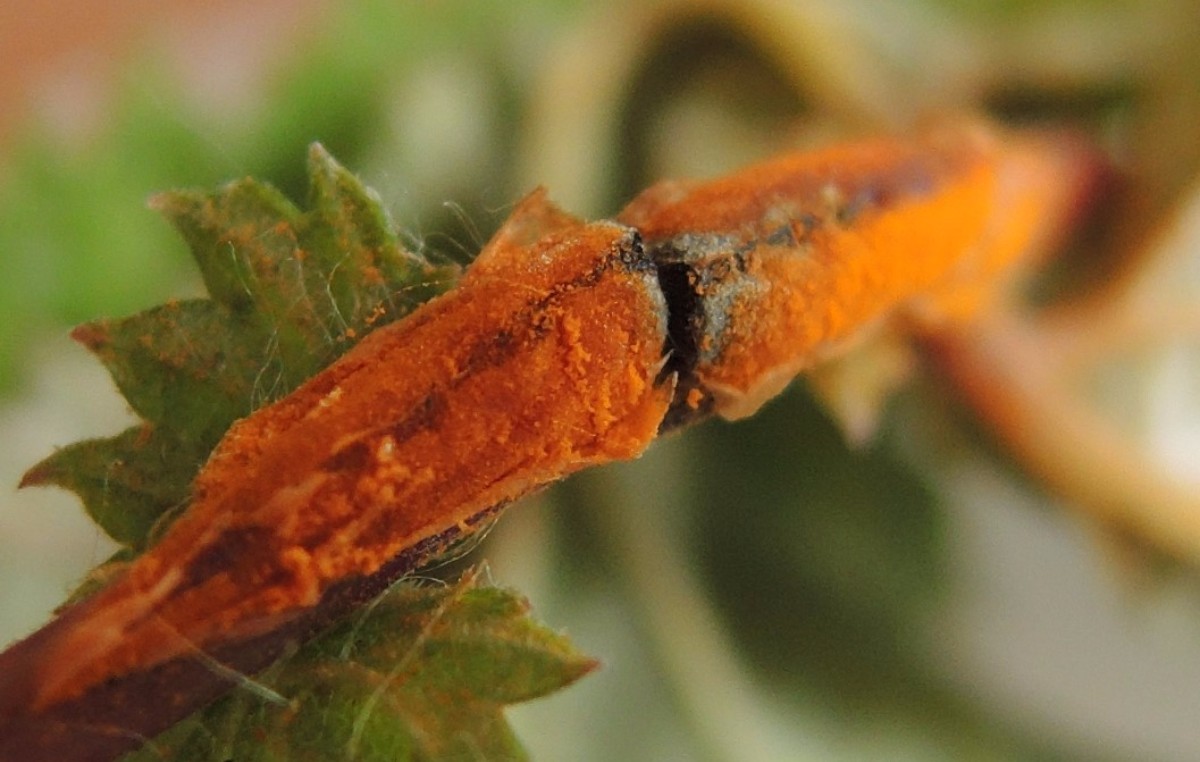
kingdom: Fungi
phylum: Basidiomycota
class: Pucciniomycetes
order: Pucciniales
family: Raveneliaceae
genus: Triphragmium
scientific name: Triphragmium ulmariae
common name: almindelig mjødurtrust
